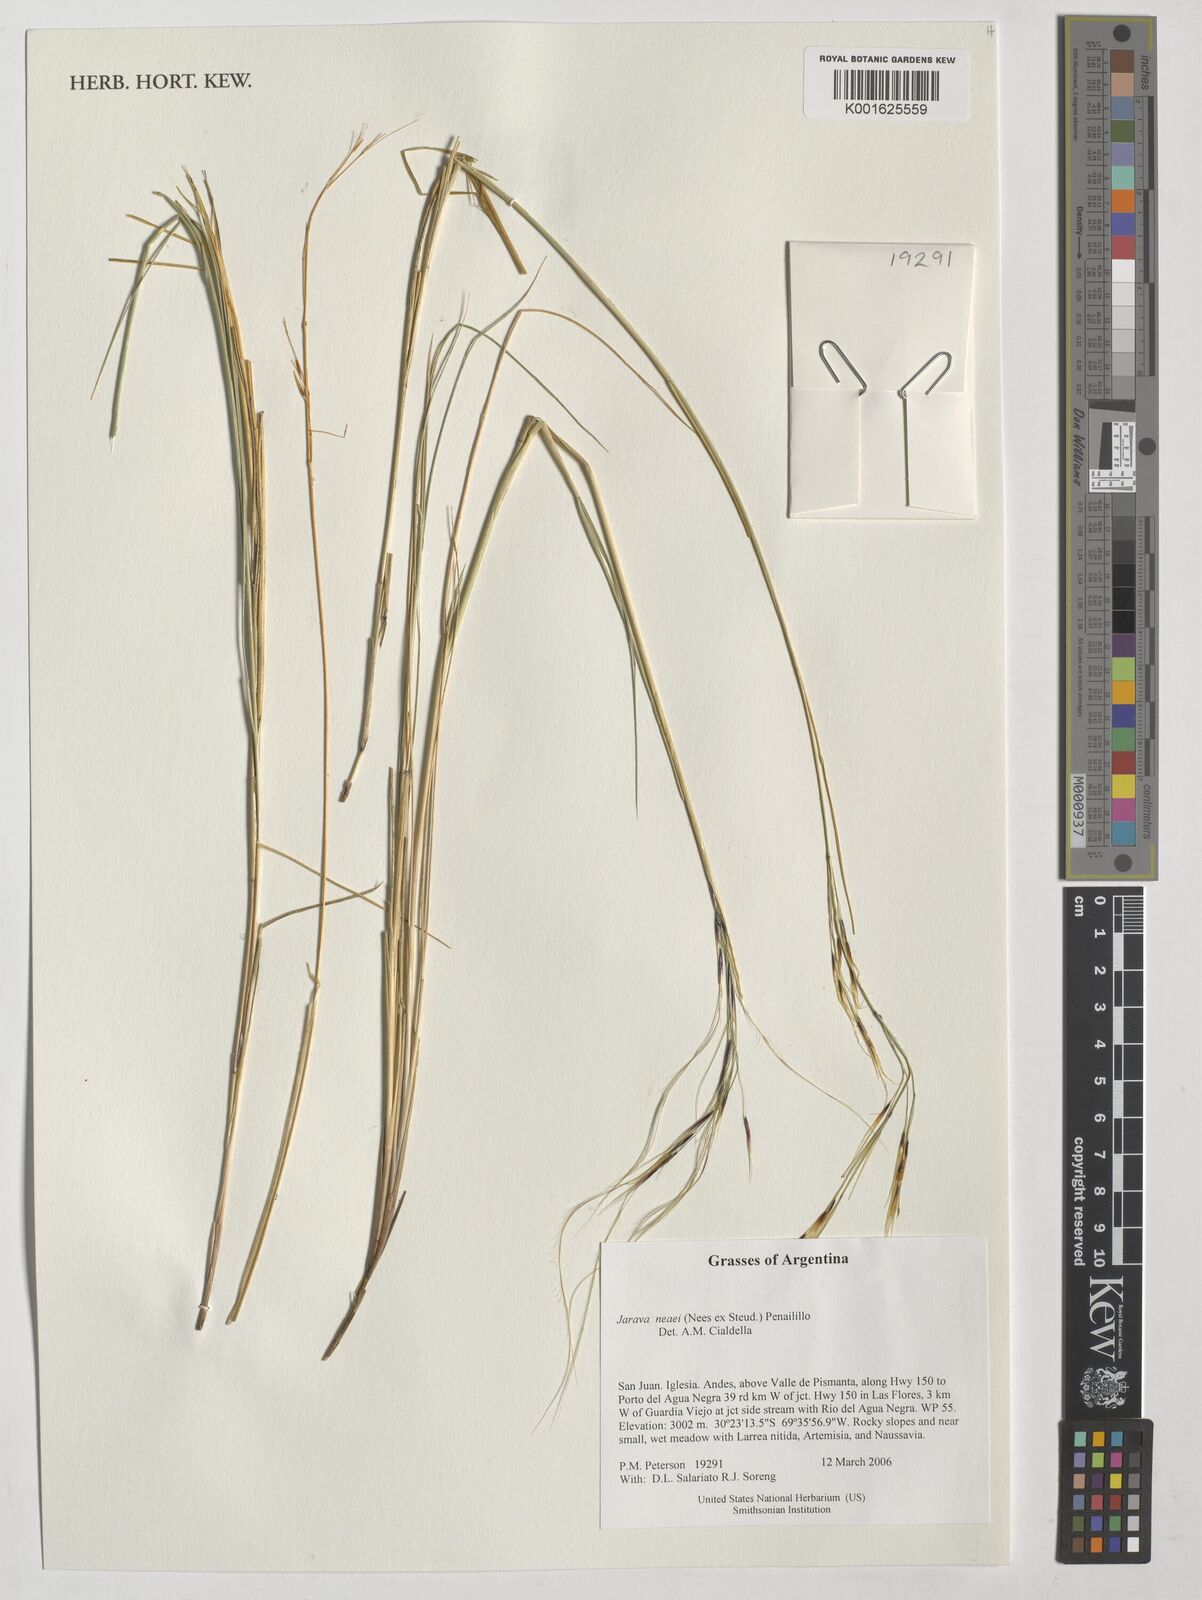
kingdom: Plantae
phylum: Tracheophyta
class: Liliopsida
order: Poales
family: Poaceae
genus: Stipa
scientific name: Stipa neaei
